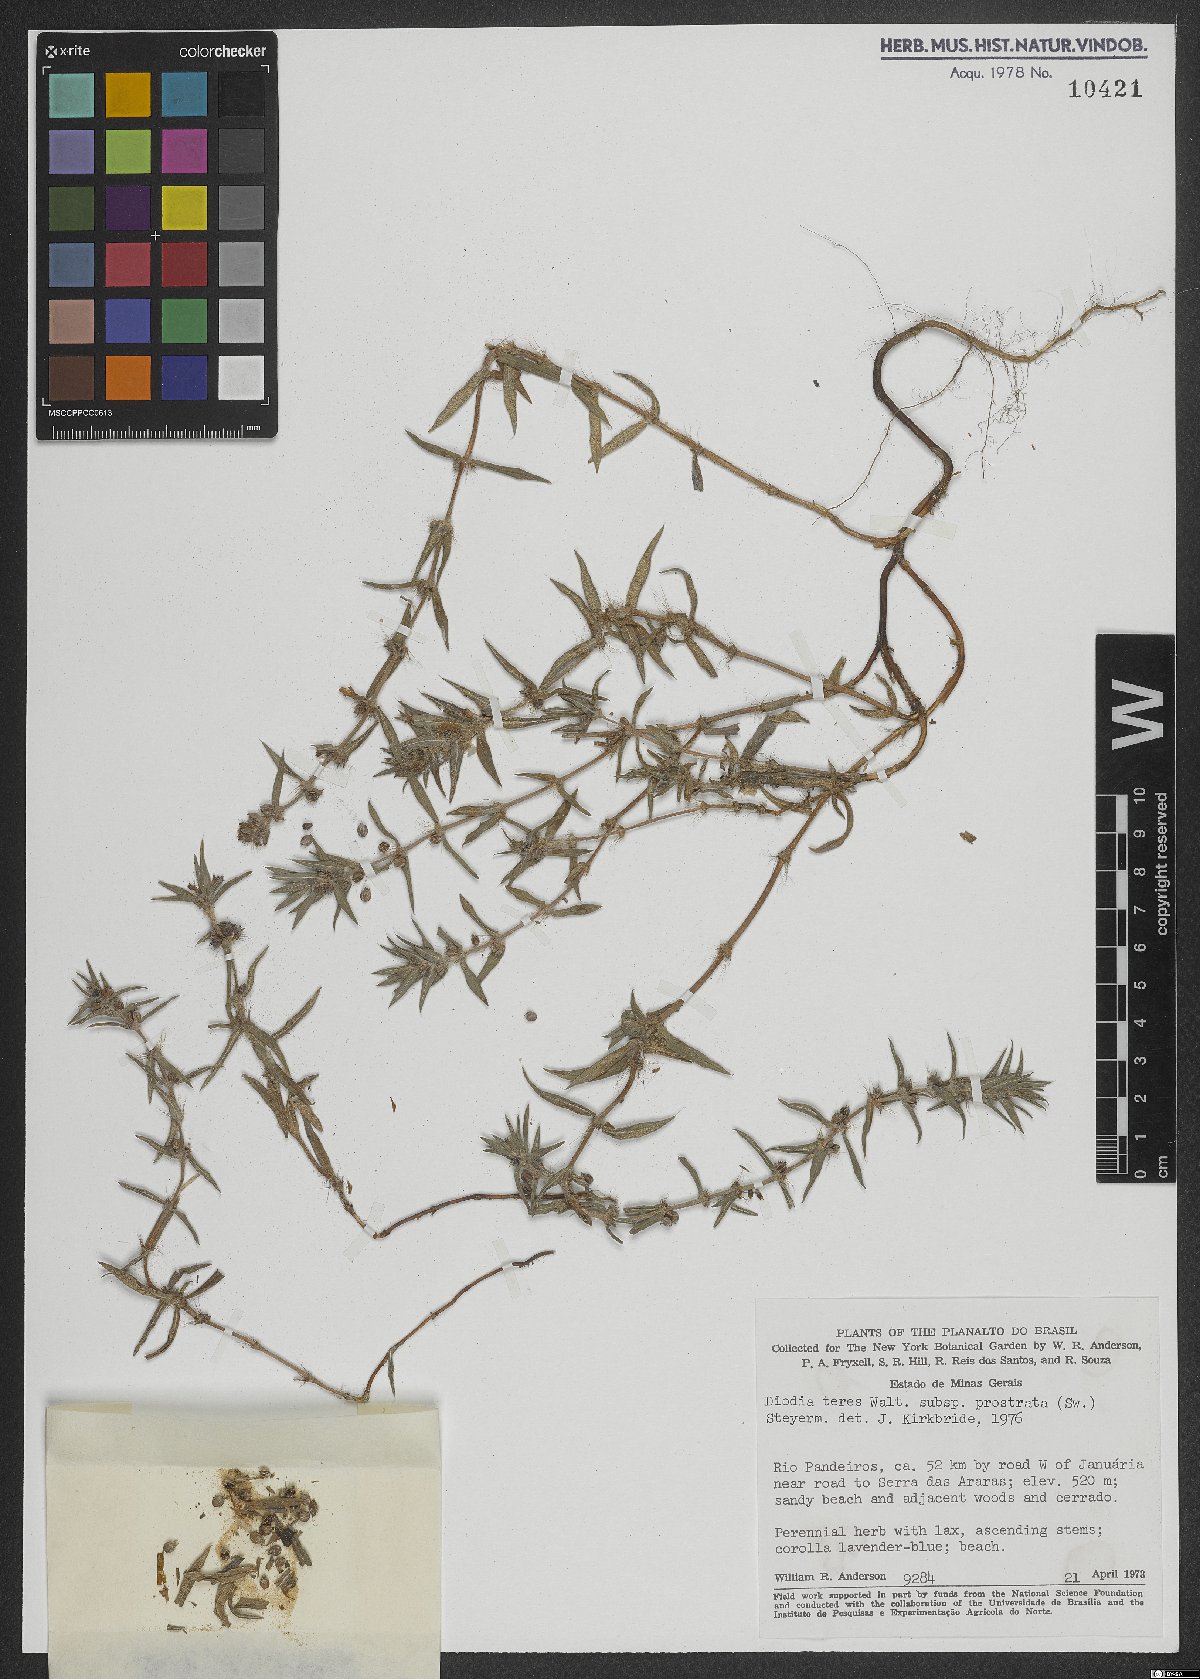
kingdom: Plantae
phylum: Tracheophyta
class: Magnoliopsida
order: Gentianales
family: Rubiaceae
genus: Hexasepalum
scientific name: Hexasepalum teres
